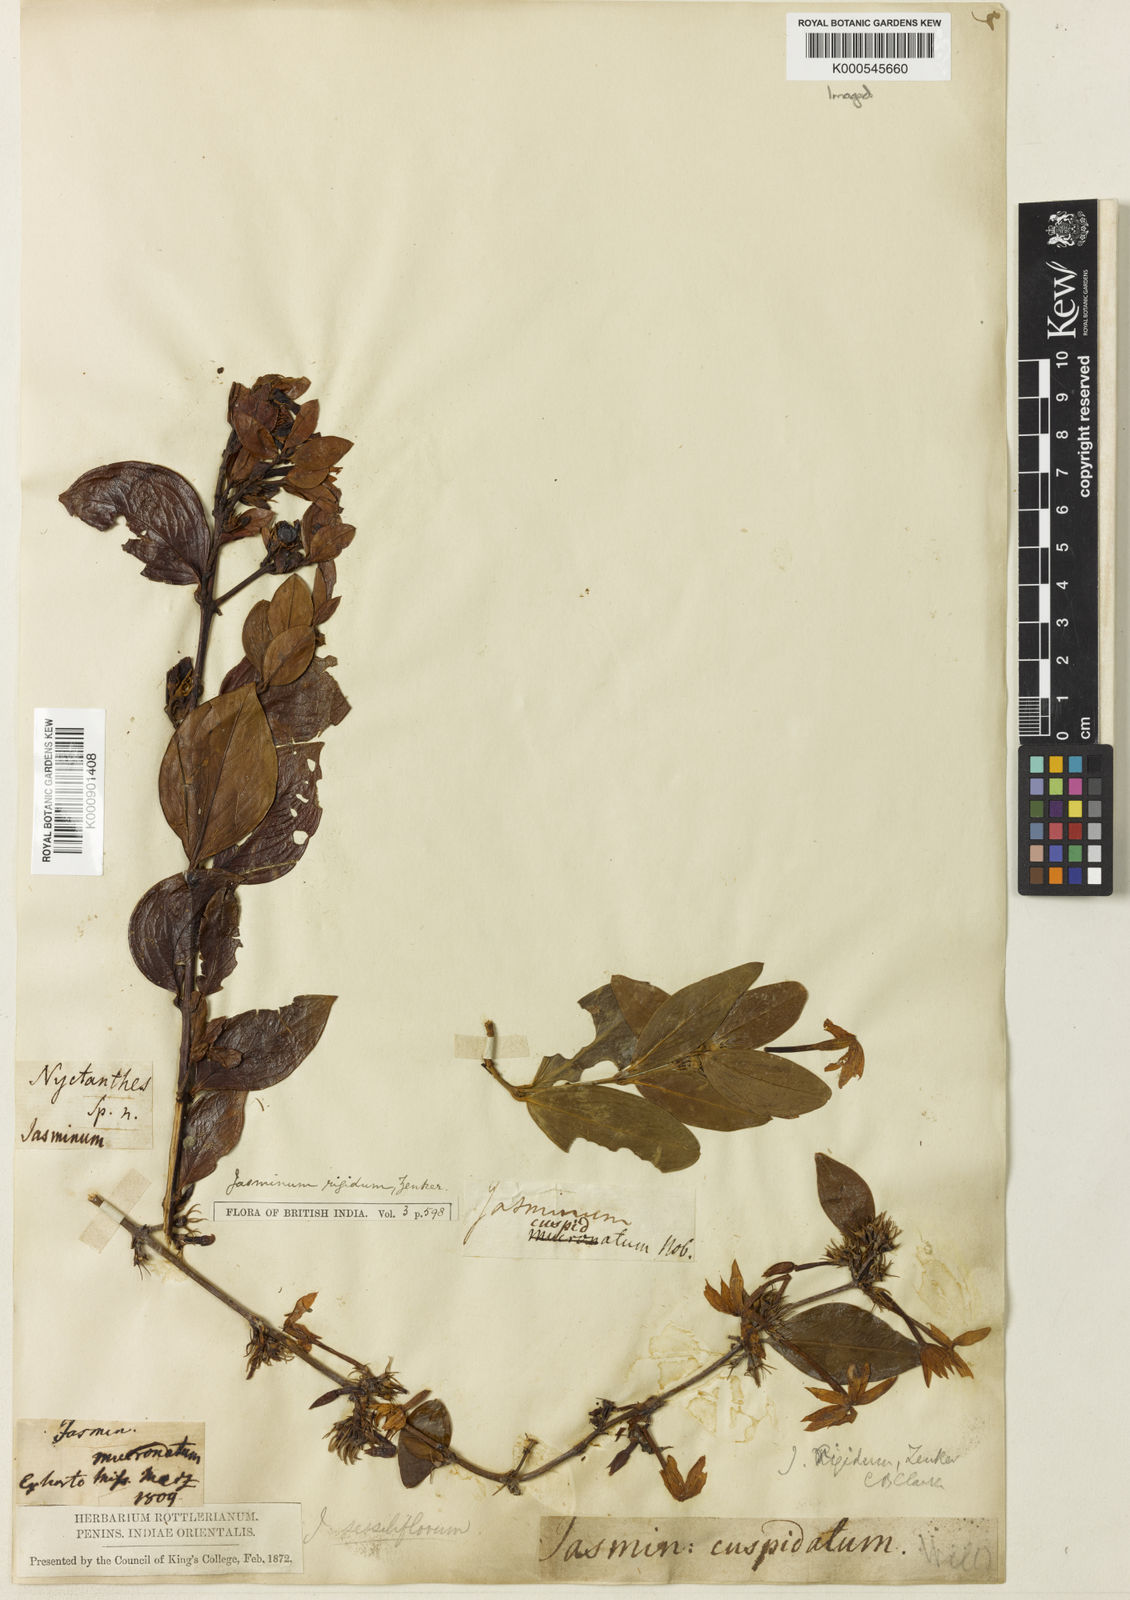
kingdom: Plantae
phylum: Tracheophyta
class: Magnoliopsida
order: Lamiales
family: Oleaceae
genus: Jasminum
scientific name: Jasminum cuspidatum
